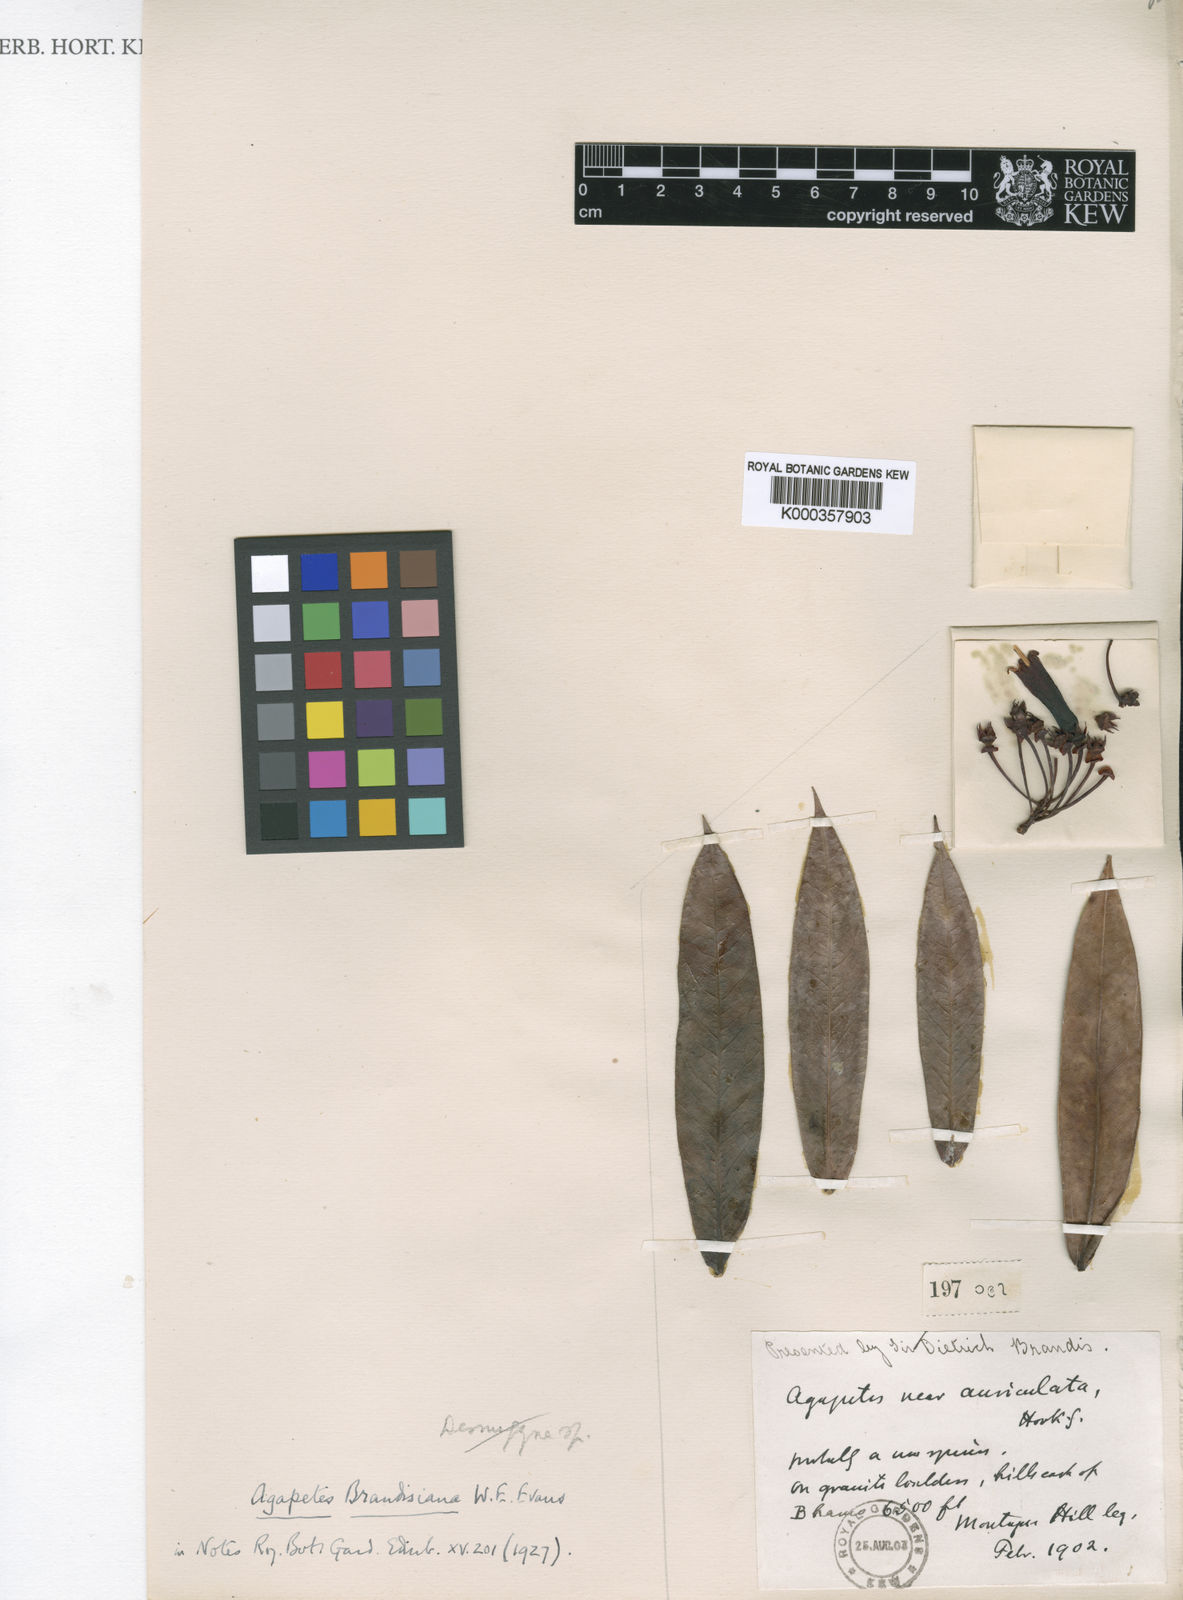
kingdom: Plantae
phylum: Tracheophyta
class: Magnoliopsida
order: Ericales
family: Ericaceae
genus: Agapetes
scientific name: Agapetes brandisiana
